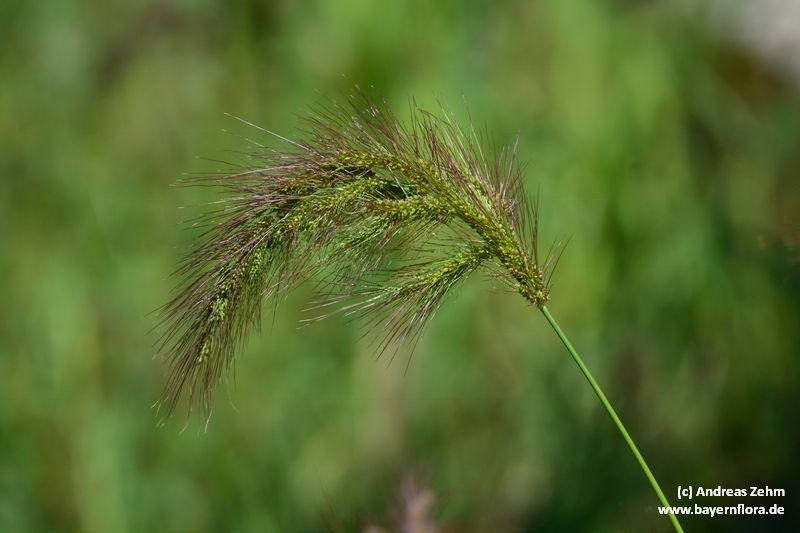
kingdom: Plantae
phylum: Tracheophyta
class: Liliopsida
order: Poales
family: Poaceae
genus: Echinochloa
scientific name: Echinochloa crus-galli
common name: Cockspur
